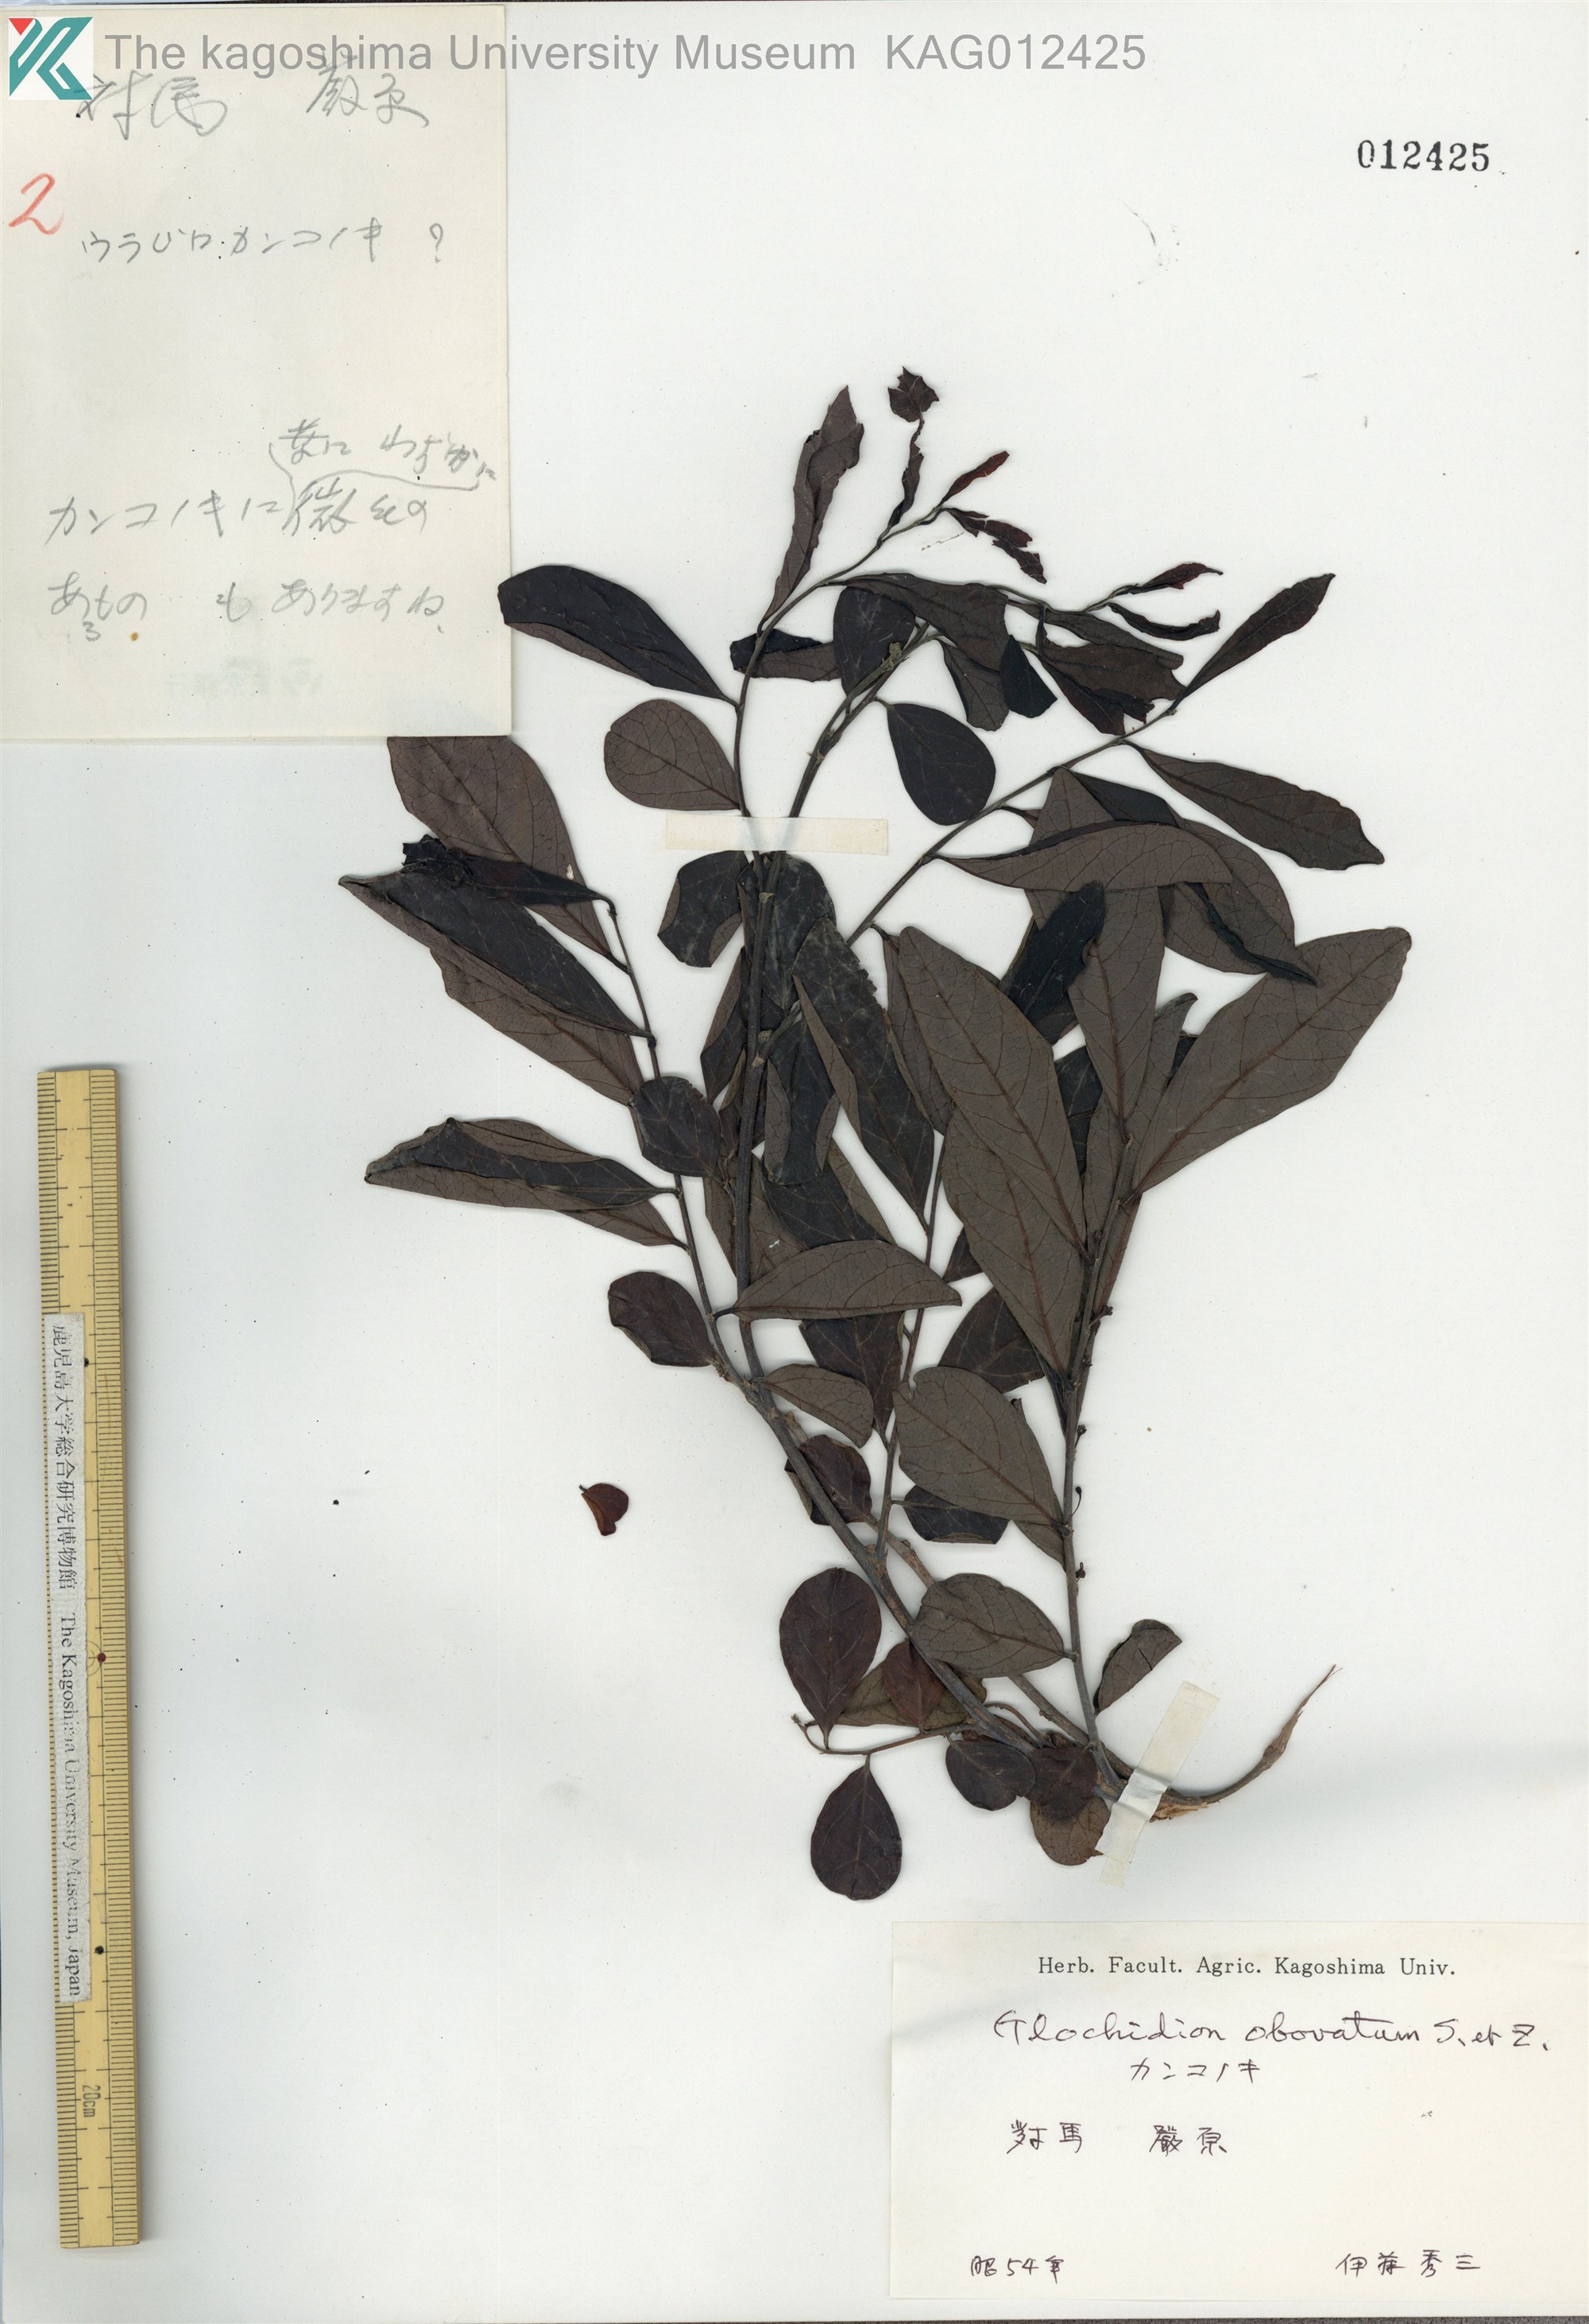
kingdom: Plantae
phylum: Tracheophyta
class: Magnoliopsida
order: Malpighiales
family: Phyllanthaceae
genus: Glochidion
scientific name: Glochidion obovatum
